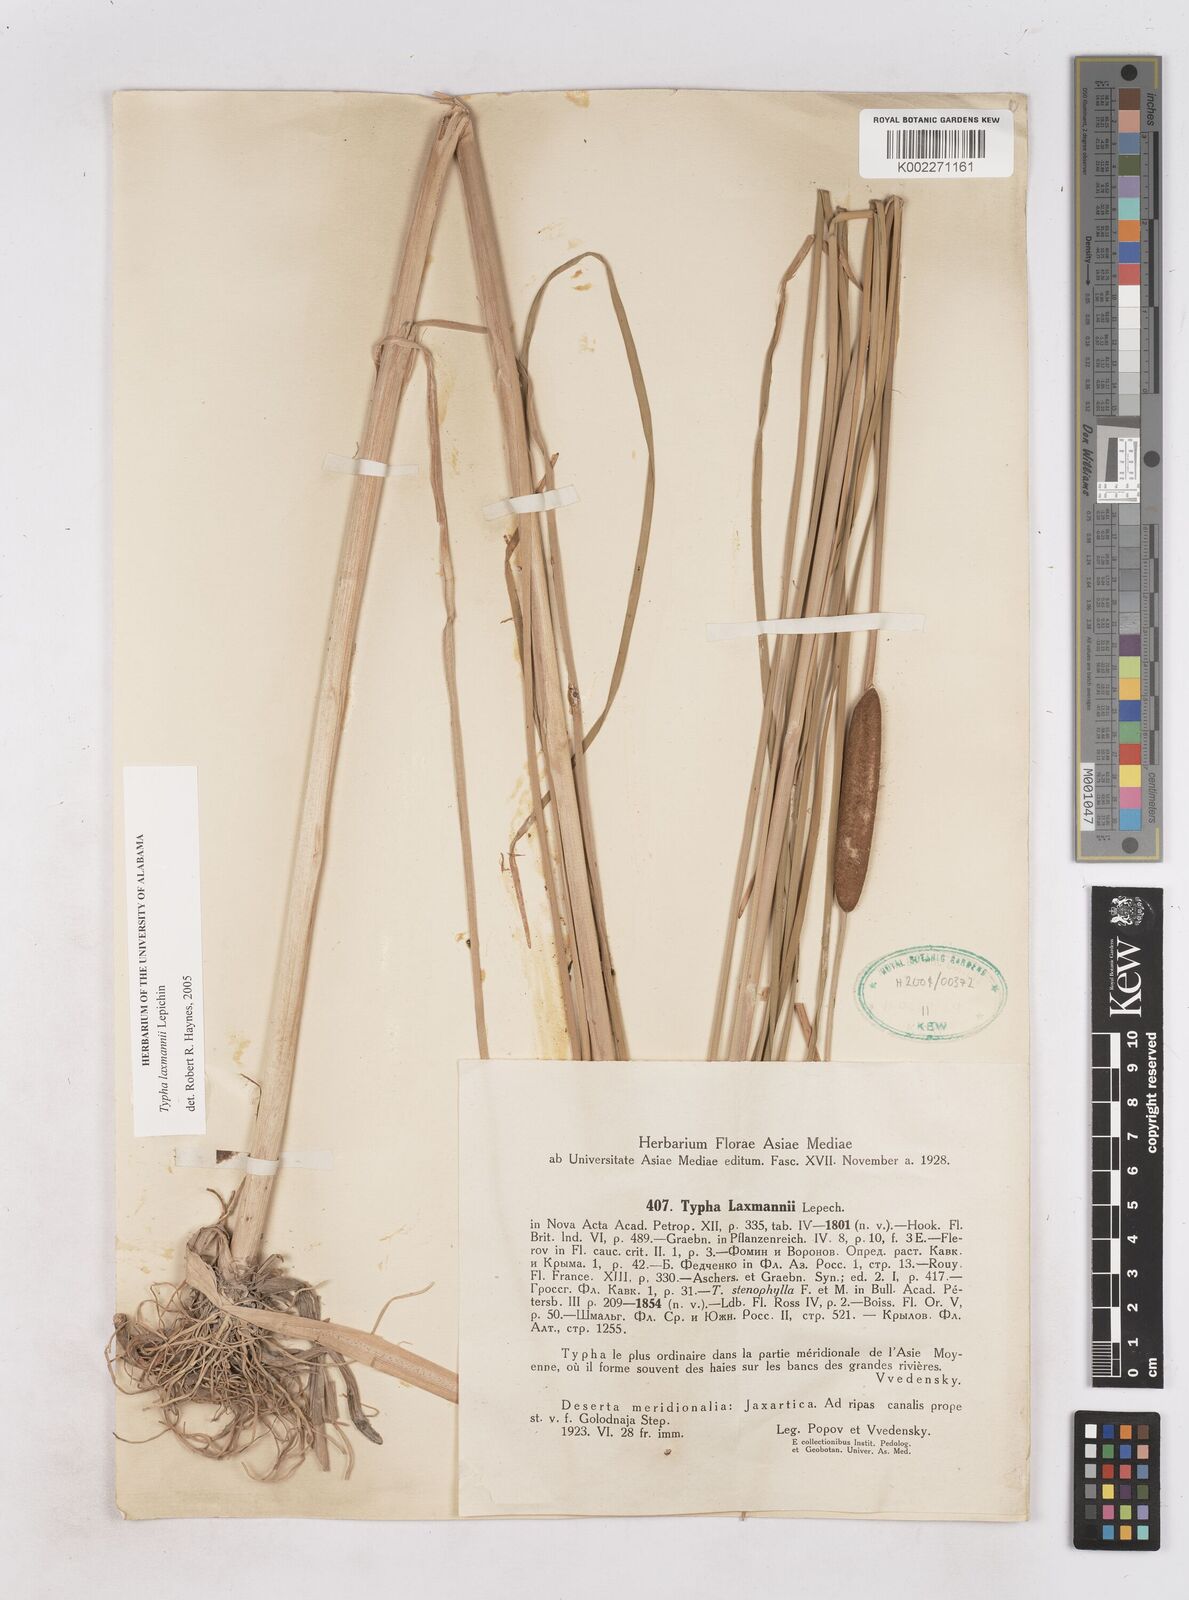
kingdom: Plantae
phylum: Tracheophyta
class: Liliopsida
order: Poales
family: Typhaceae
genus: Typha
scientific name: Typha laxmannii
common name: Laxman’s bulrush
